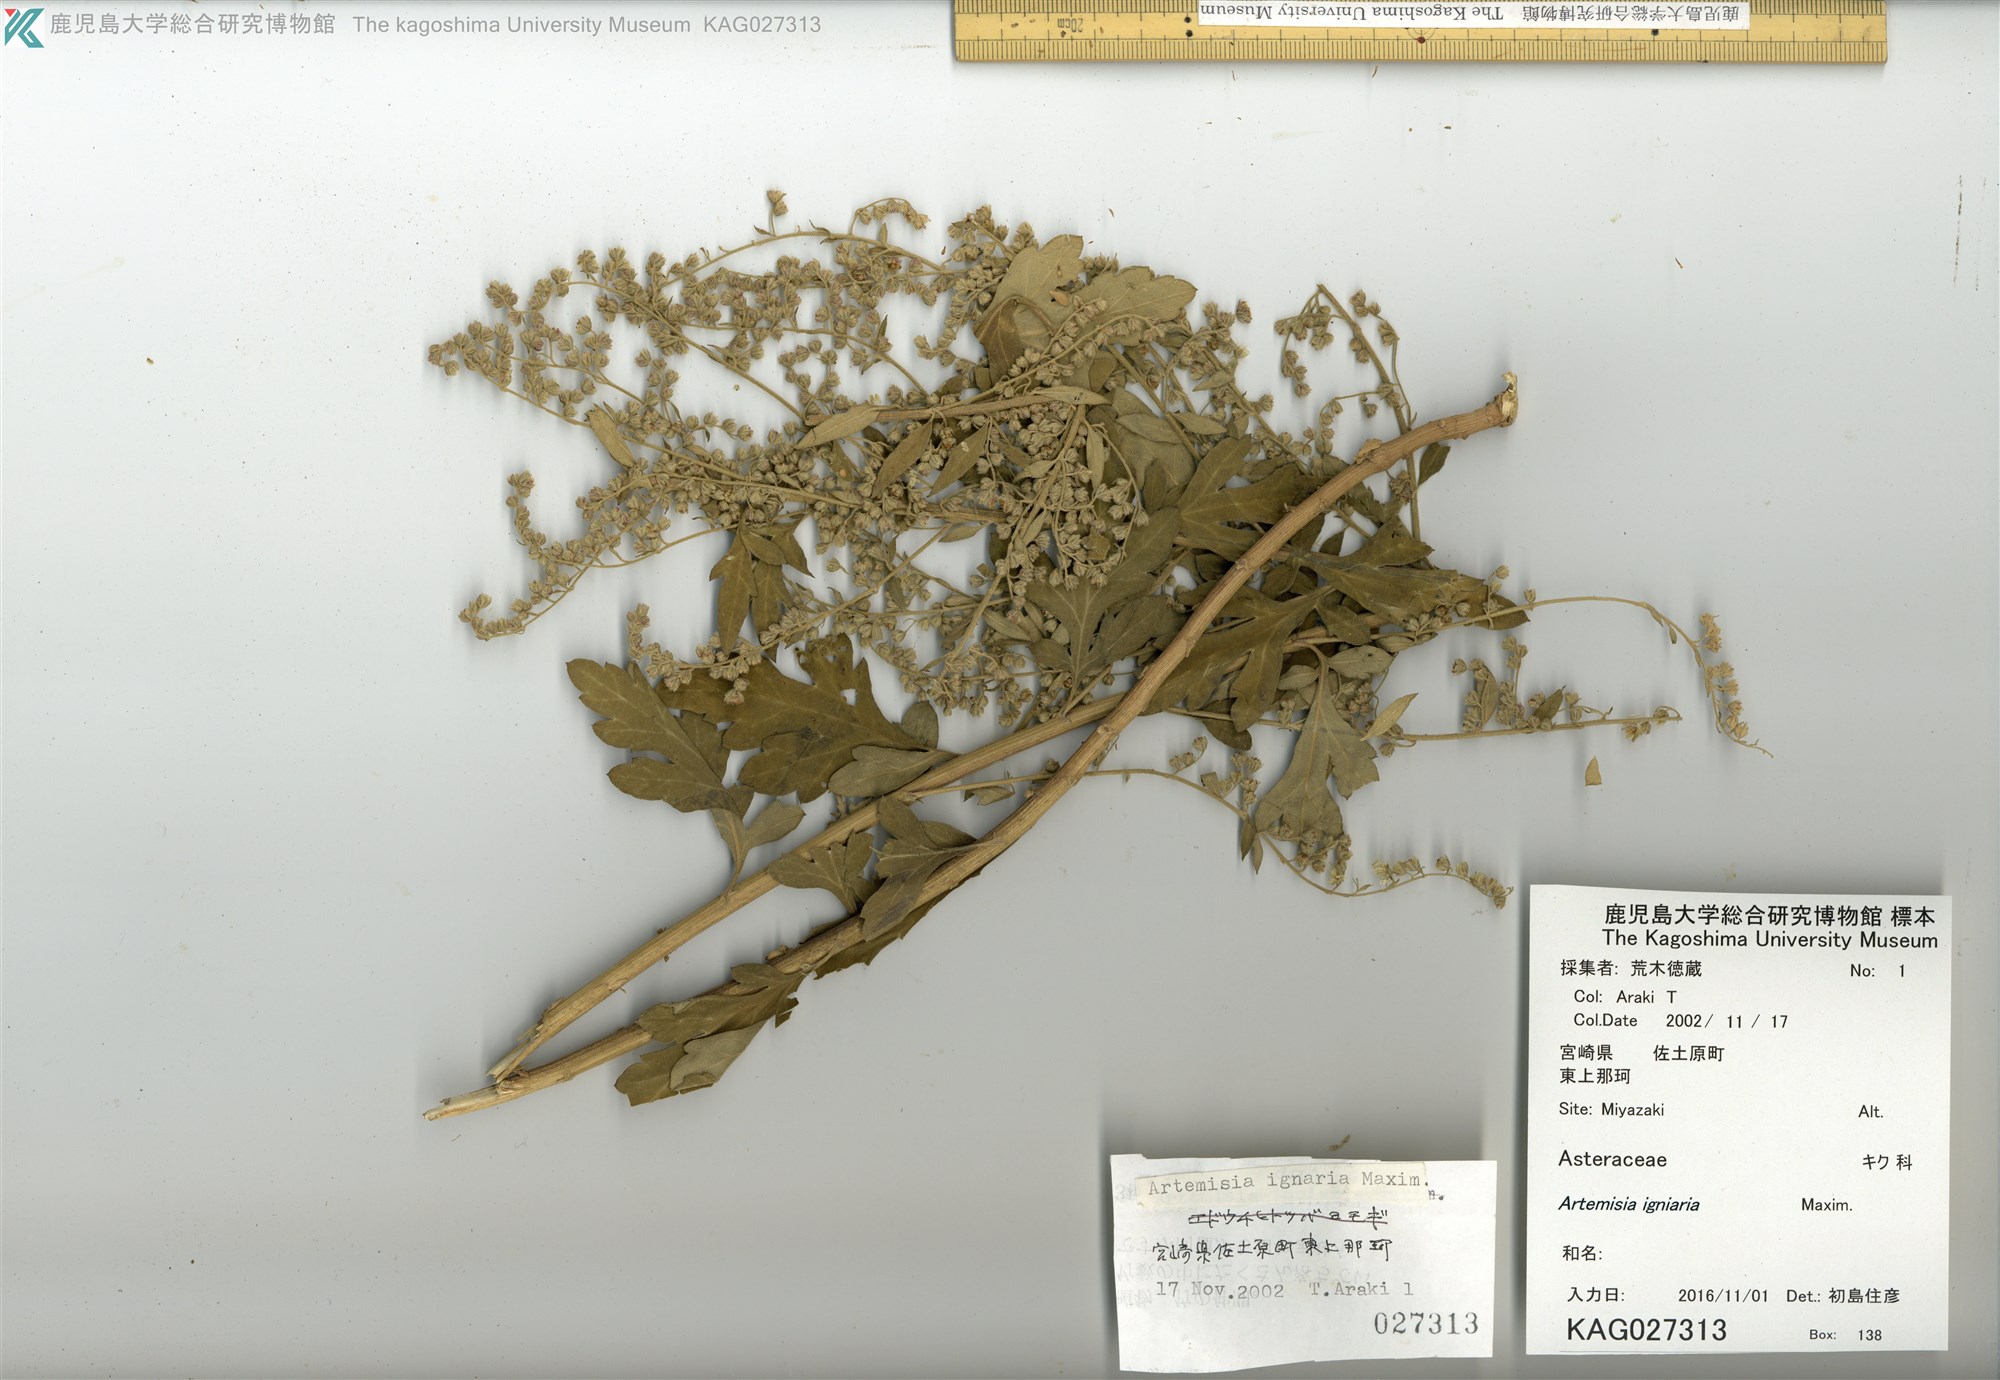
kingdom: Plantae
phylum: Tracheophyta
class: Magnoliopsida
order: Asterales
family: Asteraceae
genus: Artemisia
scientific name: Artemisia igniaria
